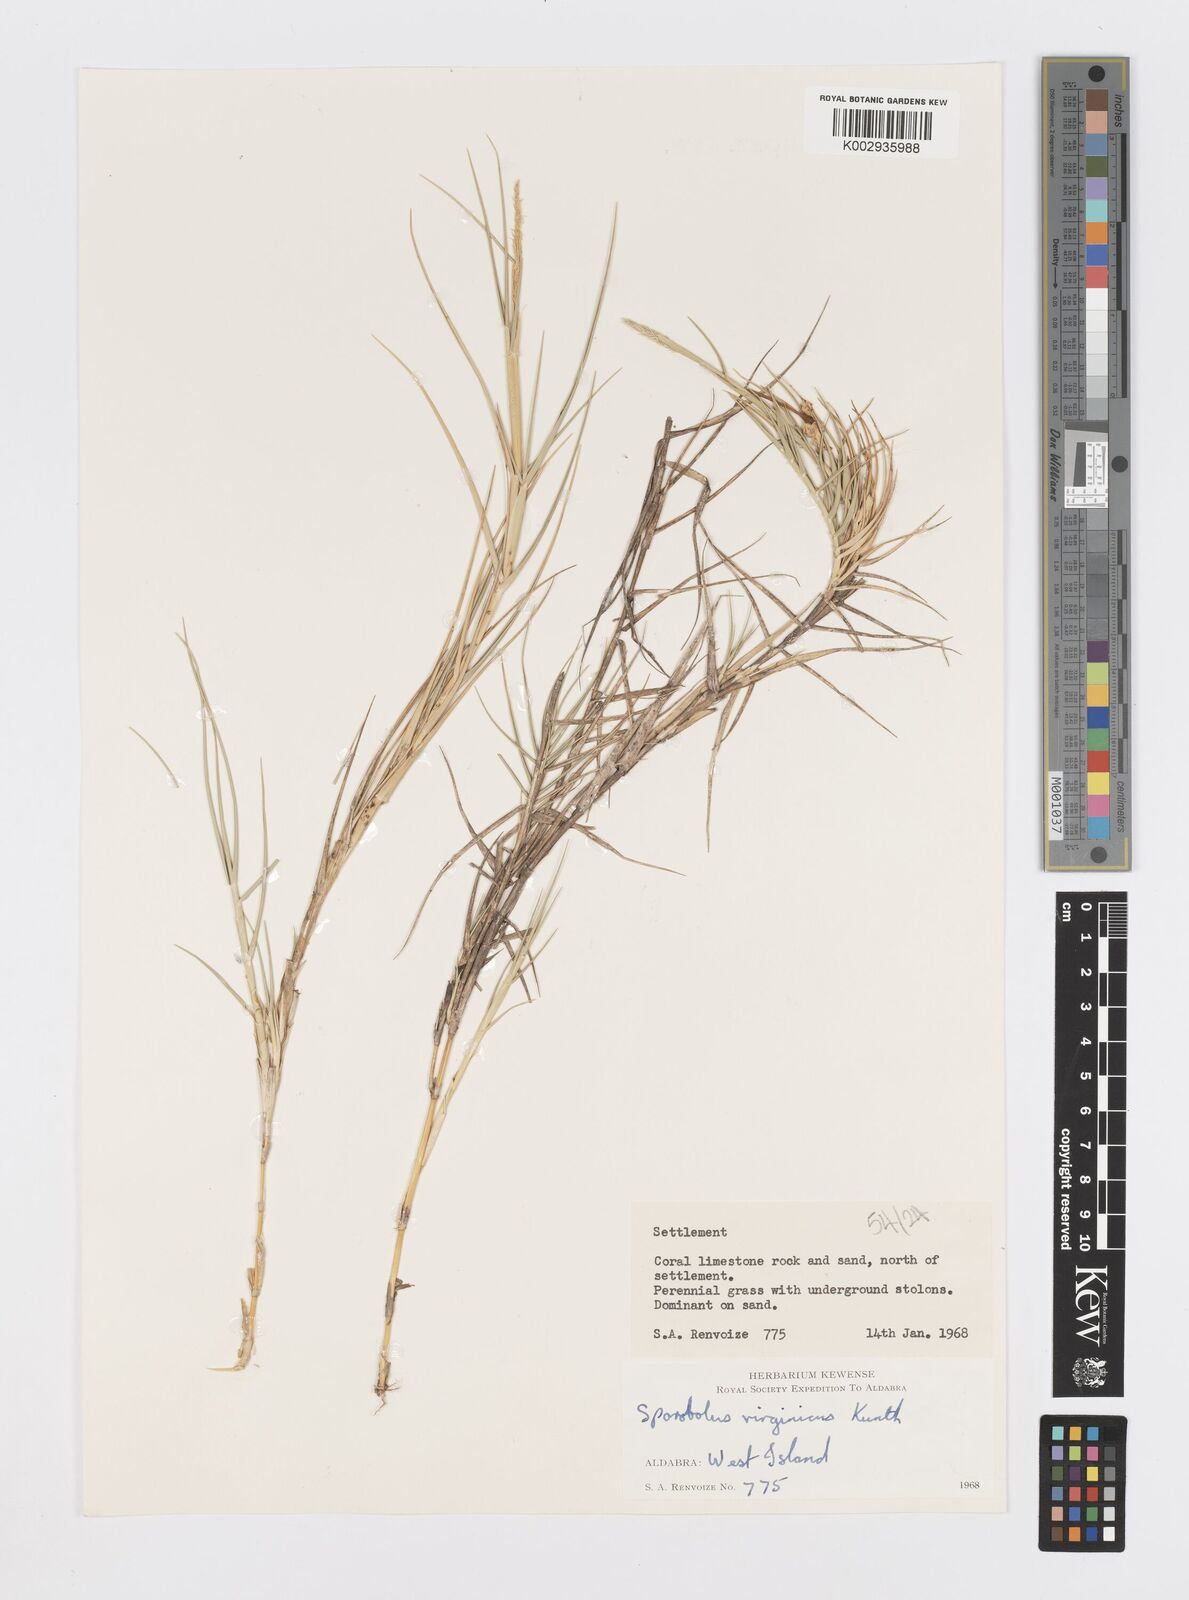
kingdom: Plantae
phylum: Tracheophyta
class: Liliopsida
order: Poales
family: Poaceae
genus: Sporobolus
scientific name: Sporobolus virginicus
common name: Beach dropseed
